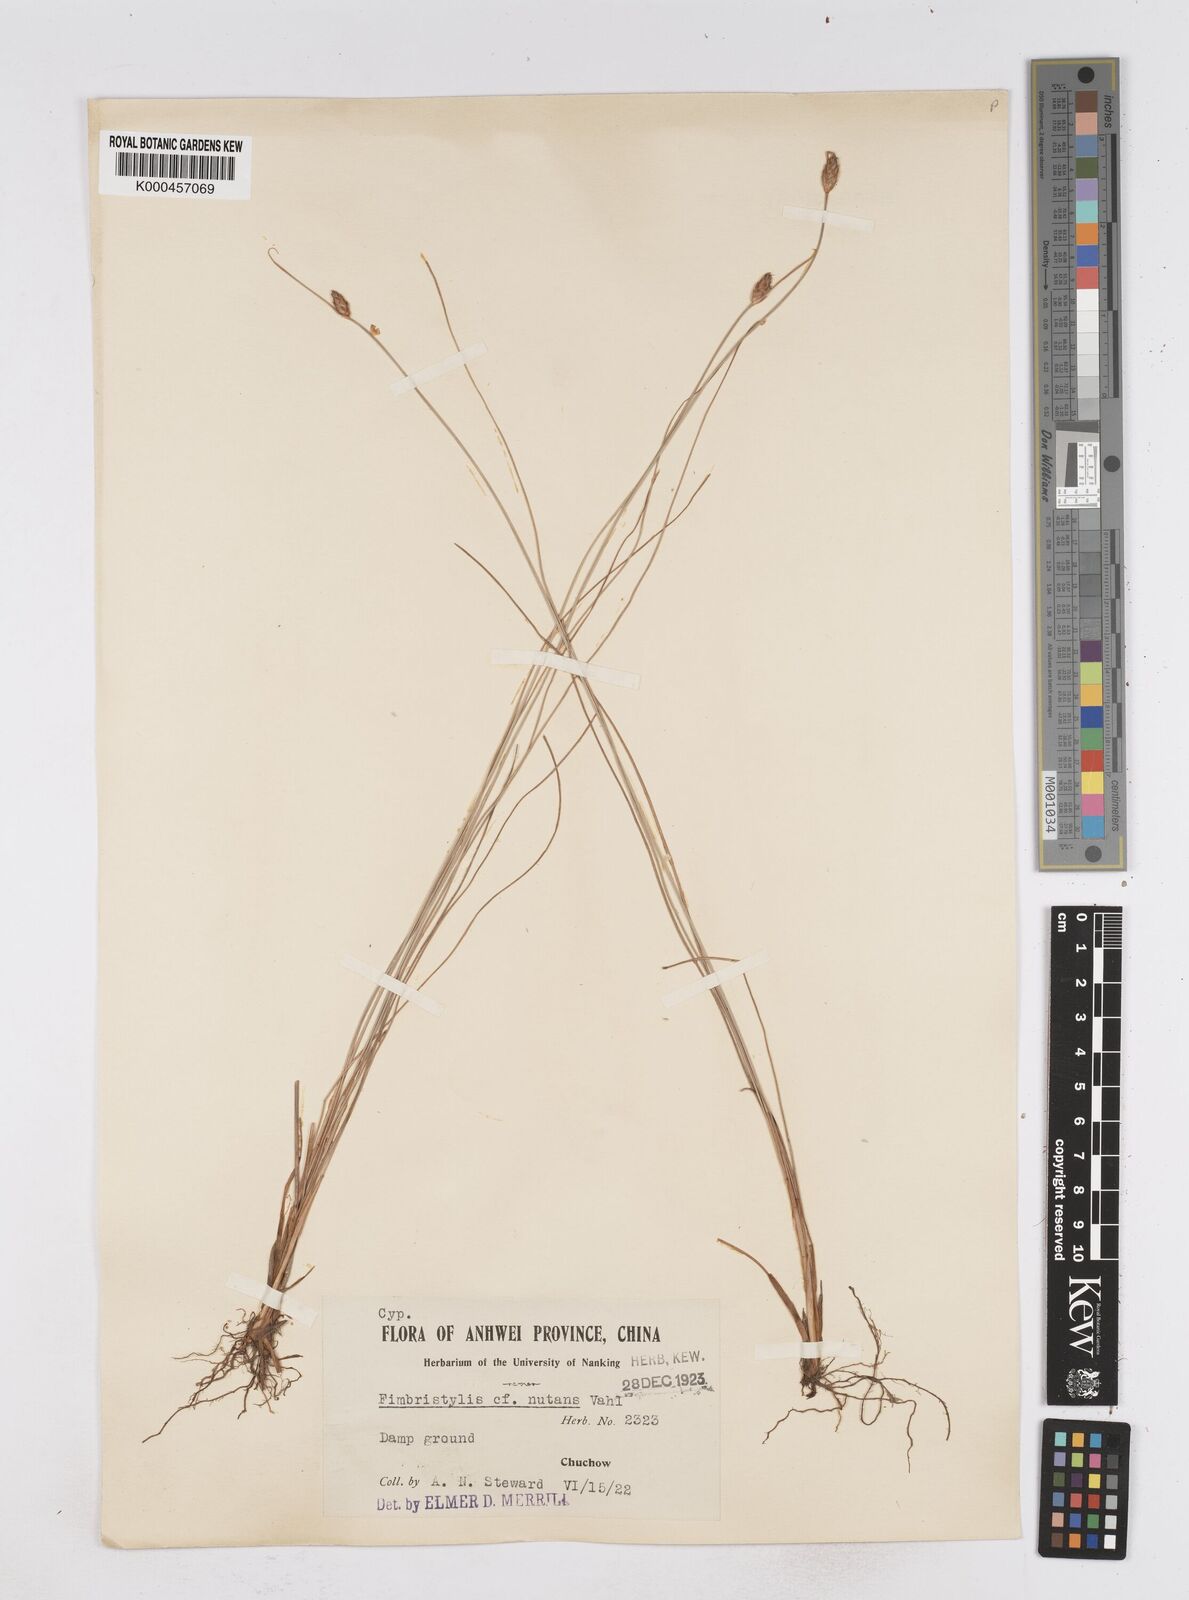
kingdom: Plantae
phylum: Tracheophyta
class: Liliopsida
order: Poales
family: Cyperaceae
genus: Fimbristylis
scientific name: Fimbristylis nutans
